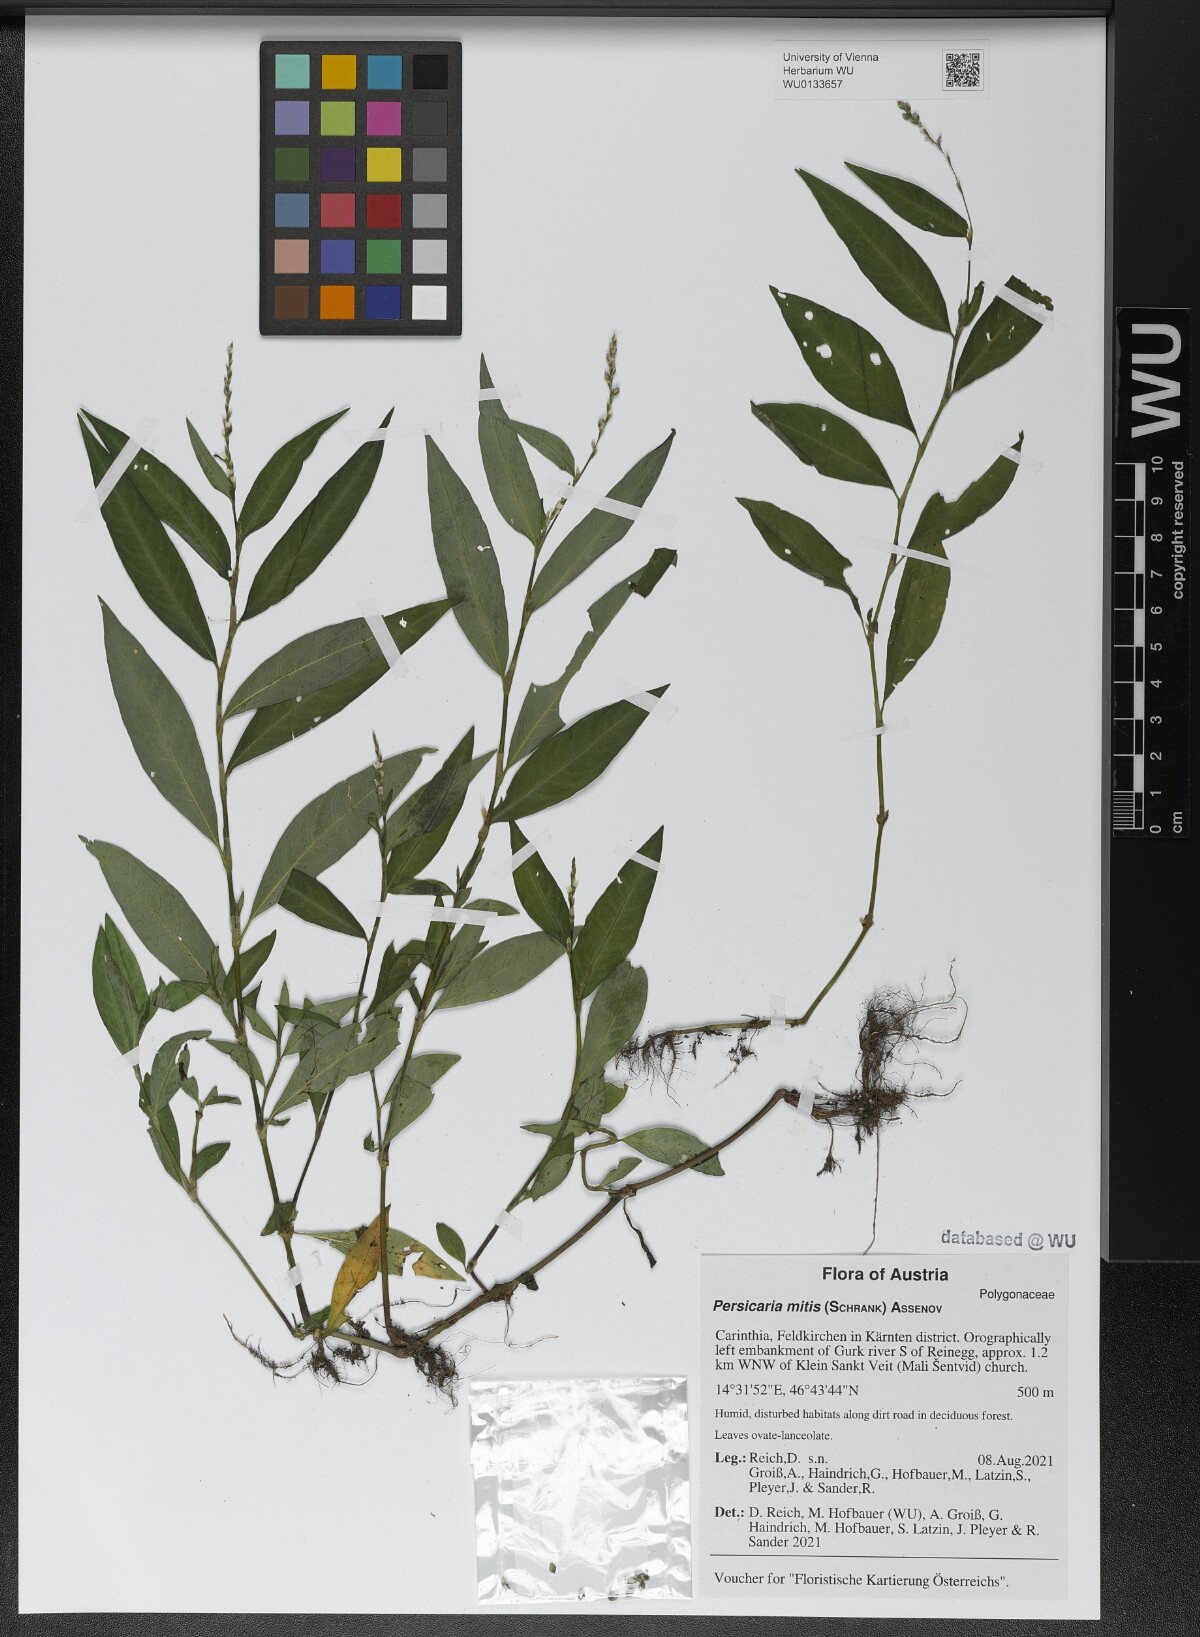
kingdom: Plantae
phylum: Tracheophyta
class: Magnoliopsida
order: Caryophyllales
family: Polygonaceae
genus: Persicaria
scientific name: Persicaria mitis
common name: Tasteless water-pepper
